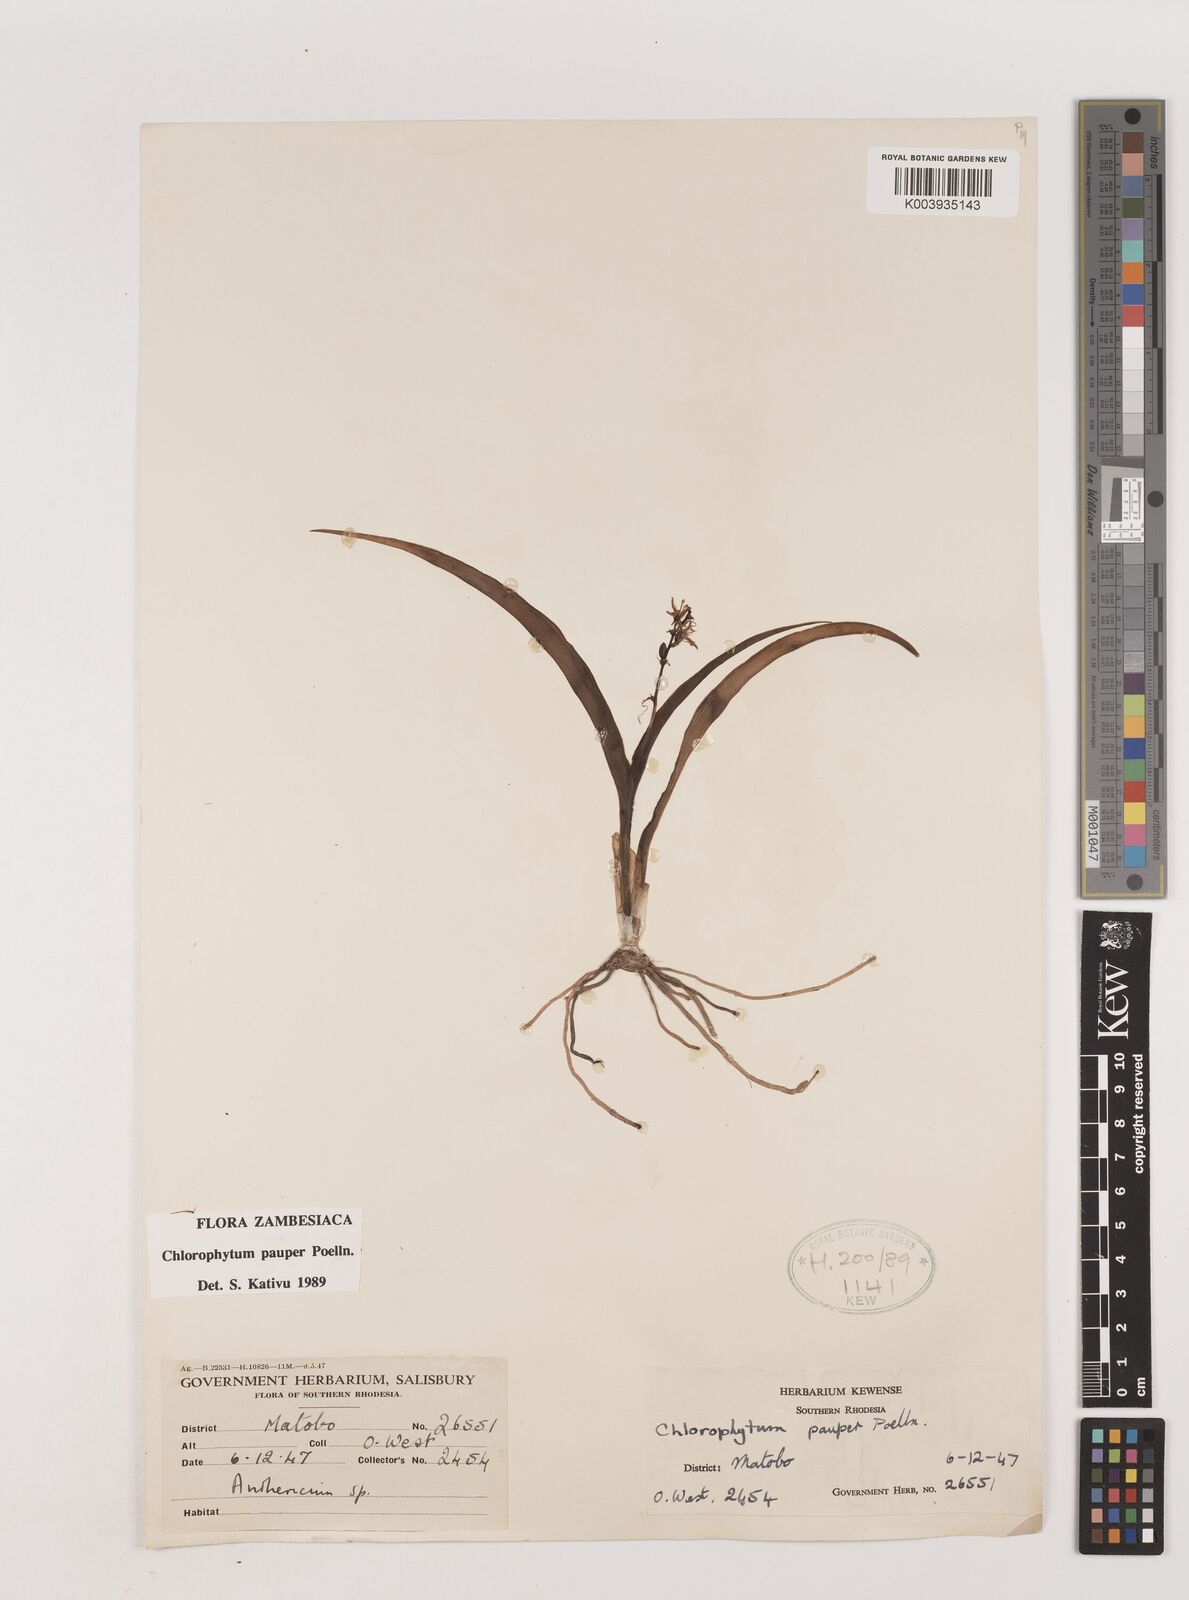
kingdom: Plantae
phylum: Tracheophyta
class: Liliopsida
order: Asparagales
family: Asparagaceae
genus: Chlorophytum
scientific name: Chlorophytum pauper
